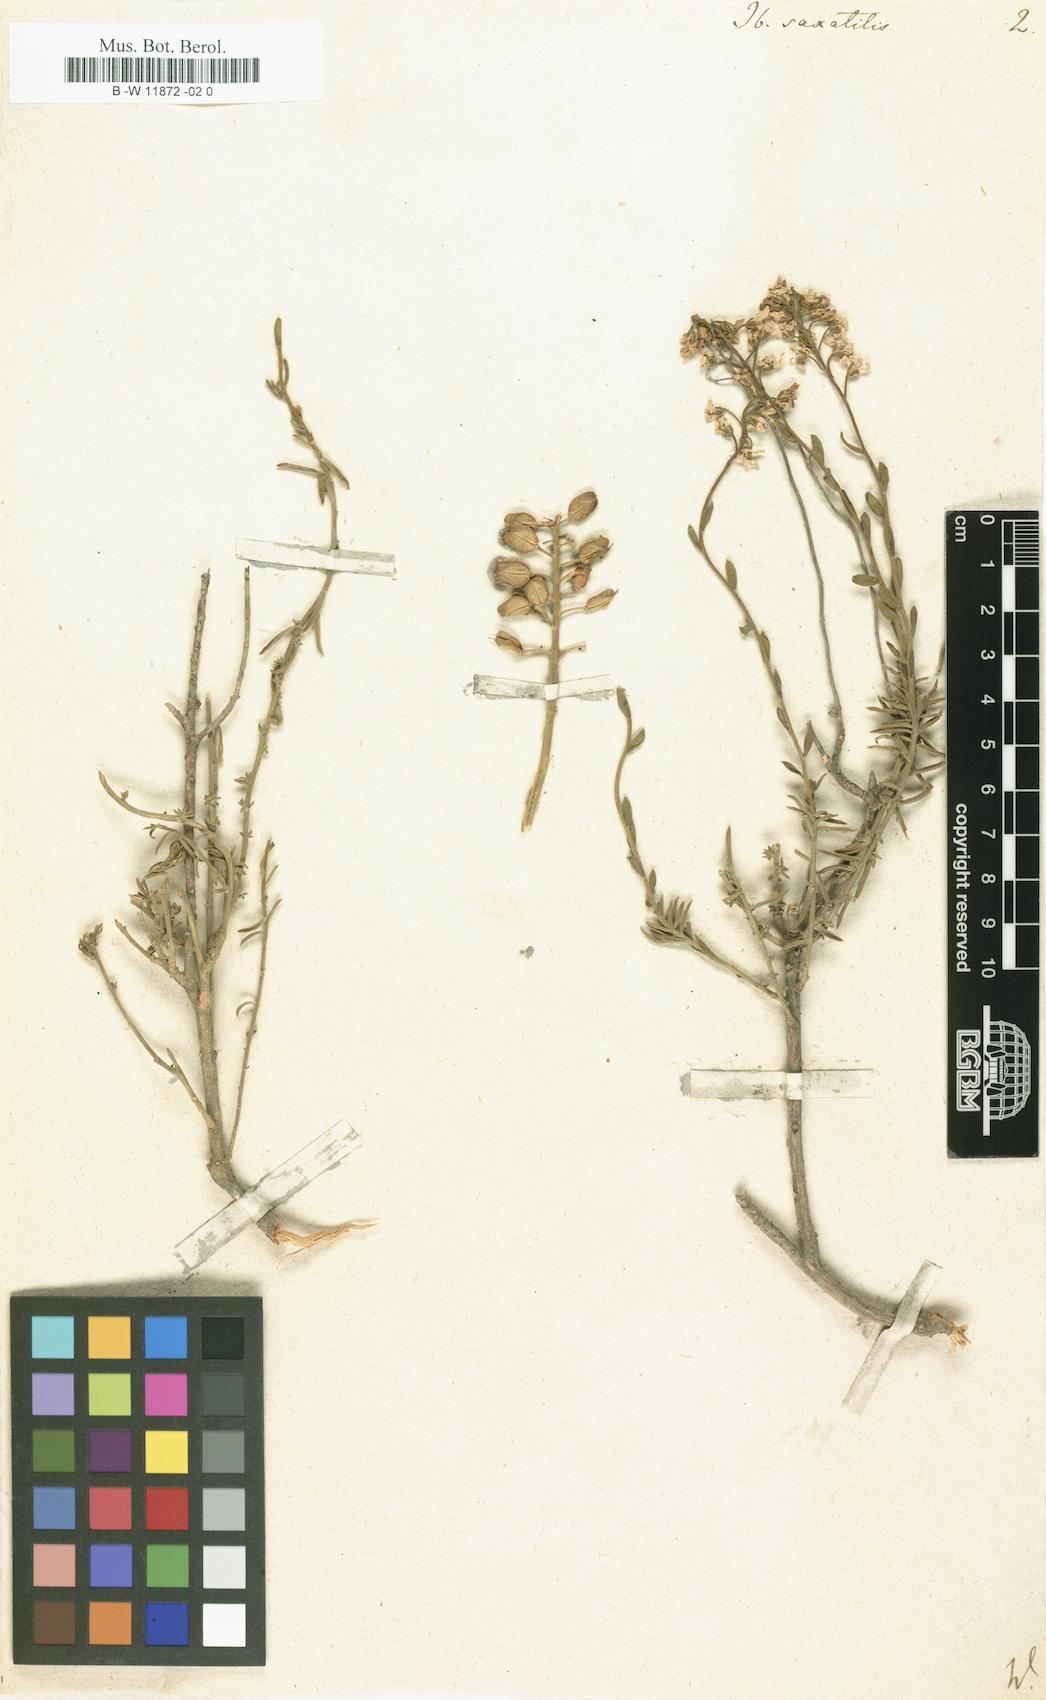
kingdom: Plantae
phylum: Tracheophyta
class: Magnoliopsida
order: Brassicales
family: Brassicaceae
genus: Iberis
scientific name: Iberis saxatilis
